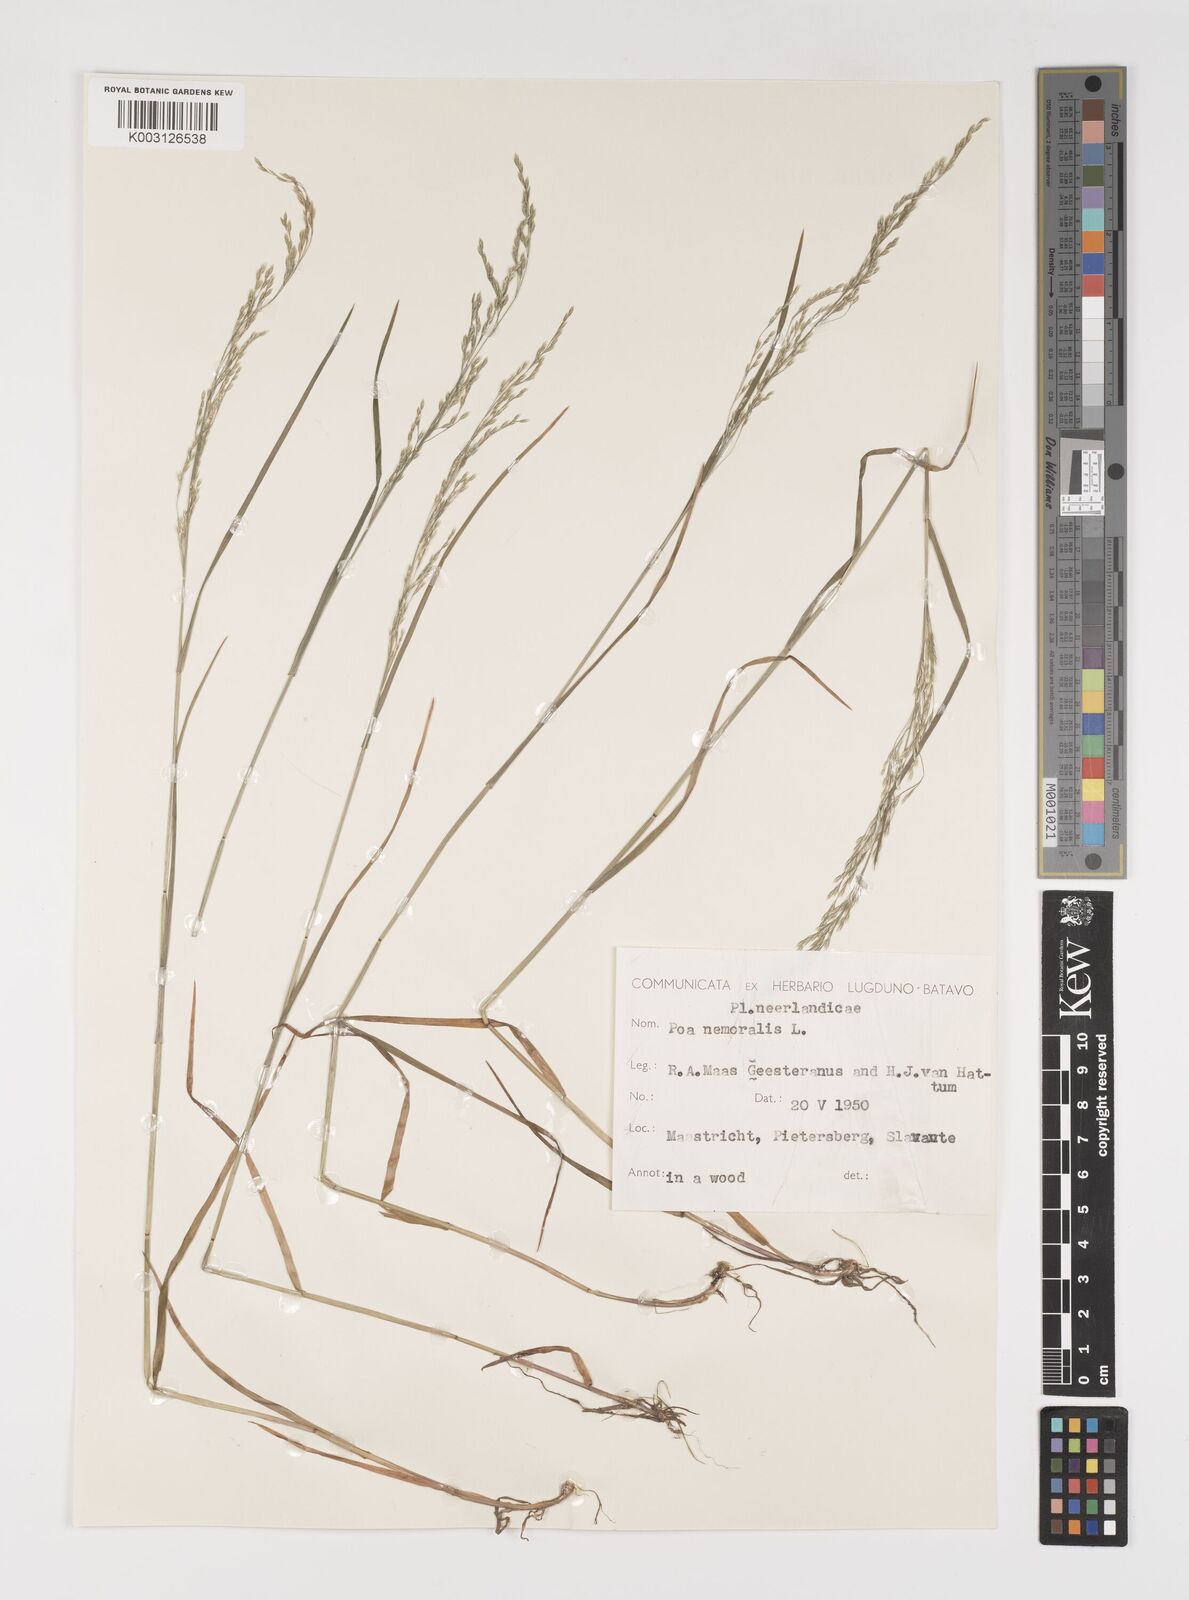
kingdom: Plantae
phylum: Tracheophyta
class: Liliopsida
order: Poales
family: Poaceae
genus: Poa
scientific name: Poa nemoralis
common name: Wood bluegrass
